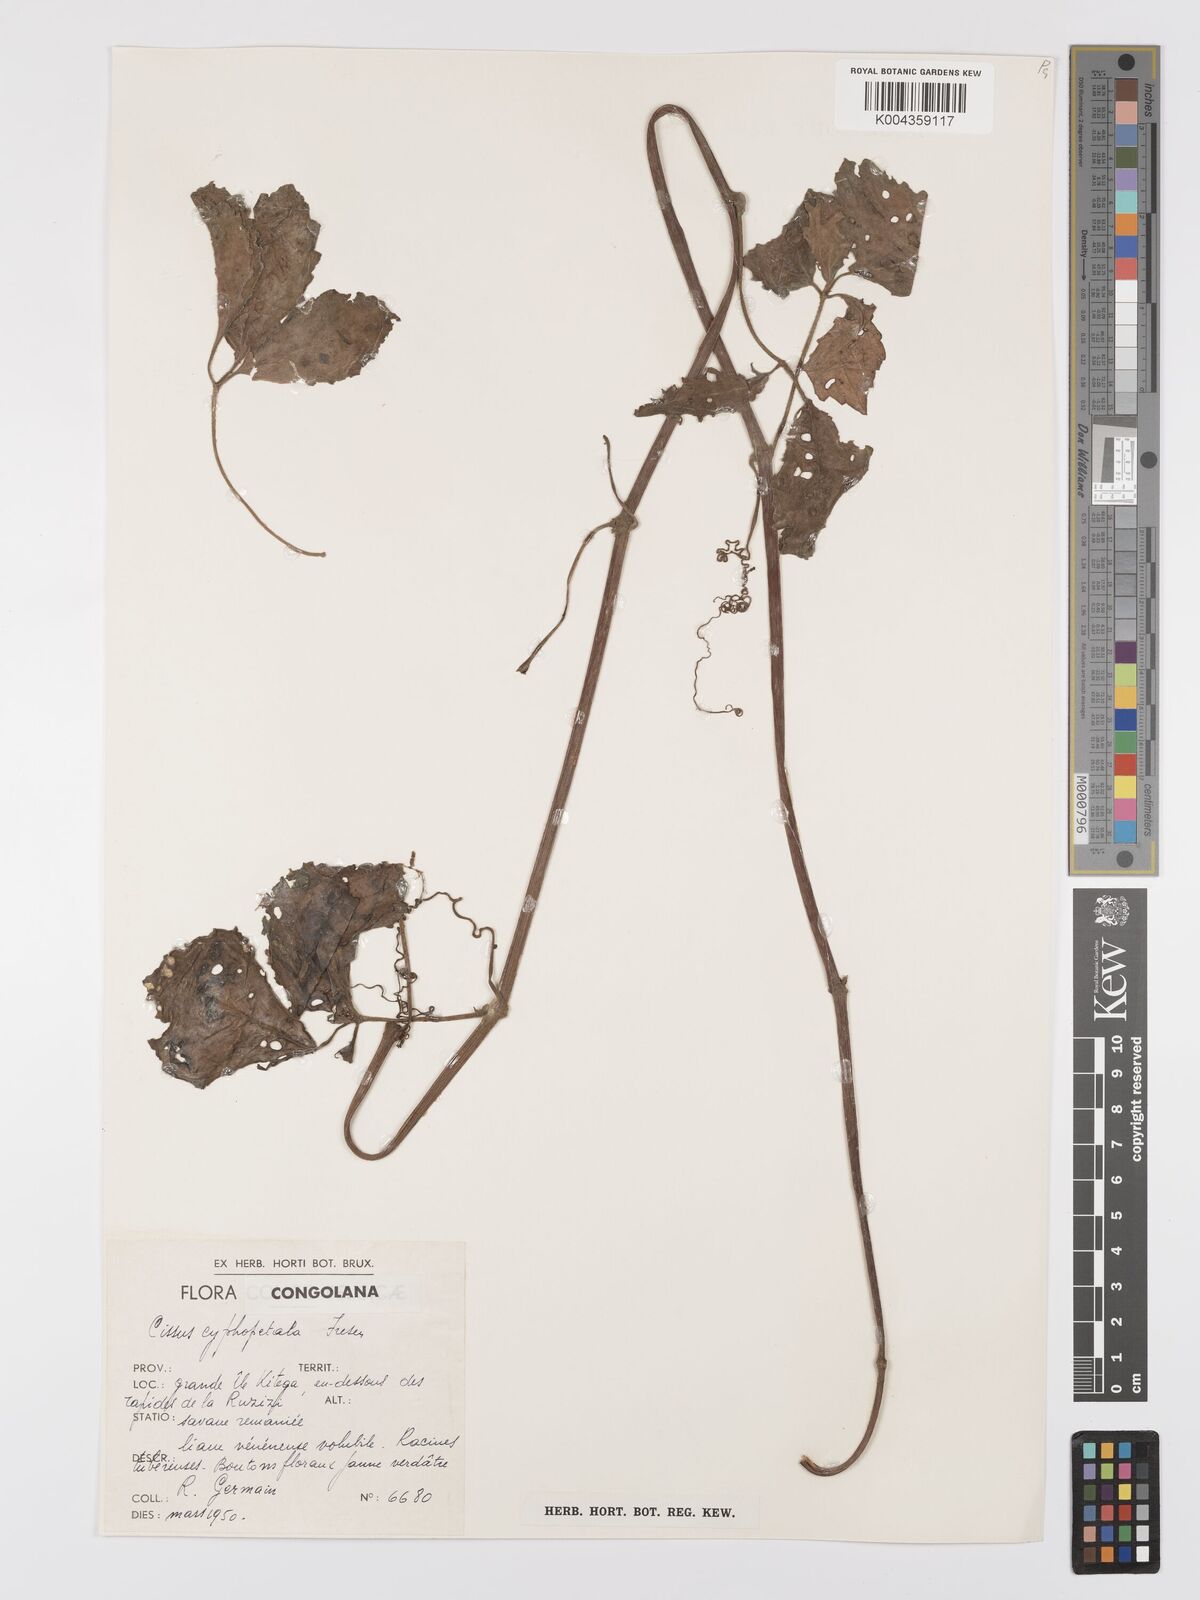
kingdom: Plantae
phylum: Tracheophyta
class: Magnoliopsida
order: Vitales
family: Vitaceae
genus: Cyphostemma
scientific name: Cyphostemma cyphopetalum
